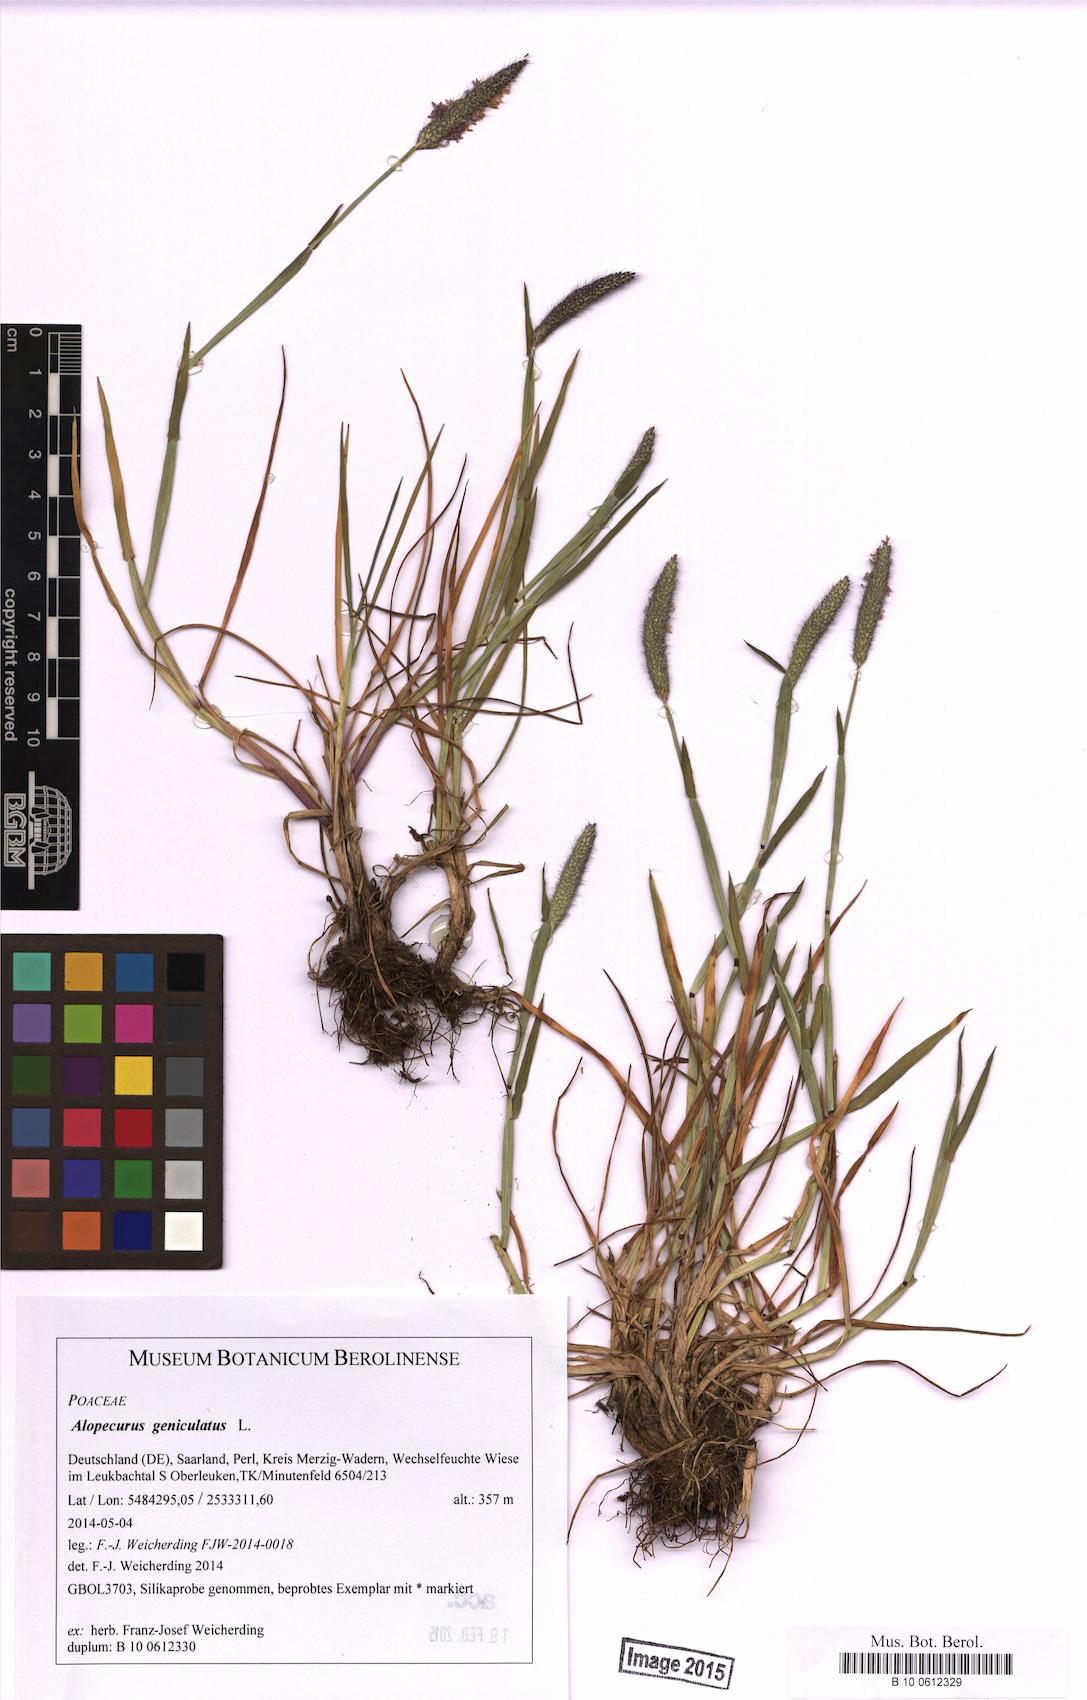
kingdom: Plantae
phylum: Tracheophyta
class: Liliopsida
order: Poales
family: Poaceae
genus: Alopecurus
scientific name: Alopecurus geniculatus
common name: Water foxtail
